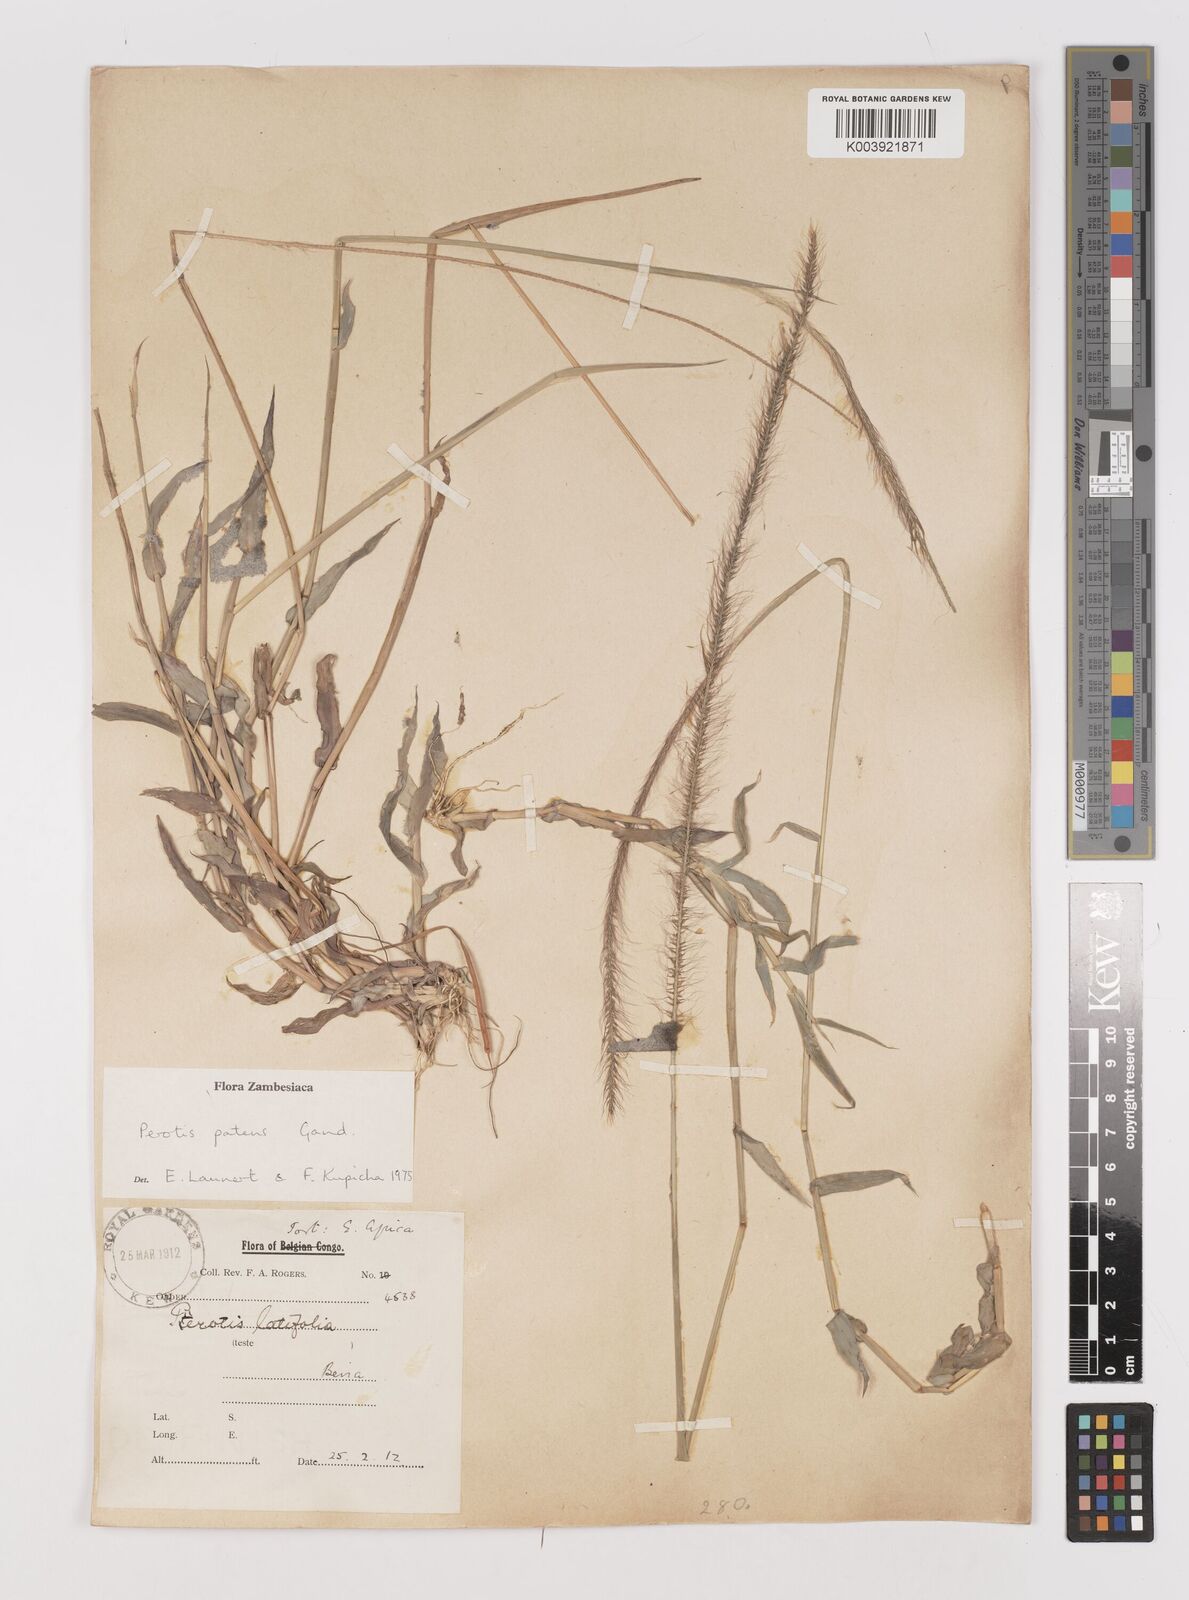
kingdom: Plantae
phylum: Tracheophyta
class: Liliopsida
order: Poales
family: Poaceae
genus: Perotis
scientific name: Perotis patens
